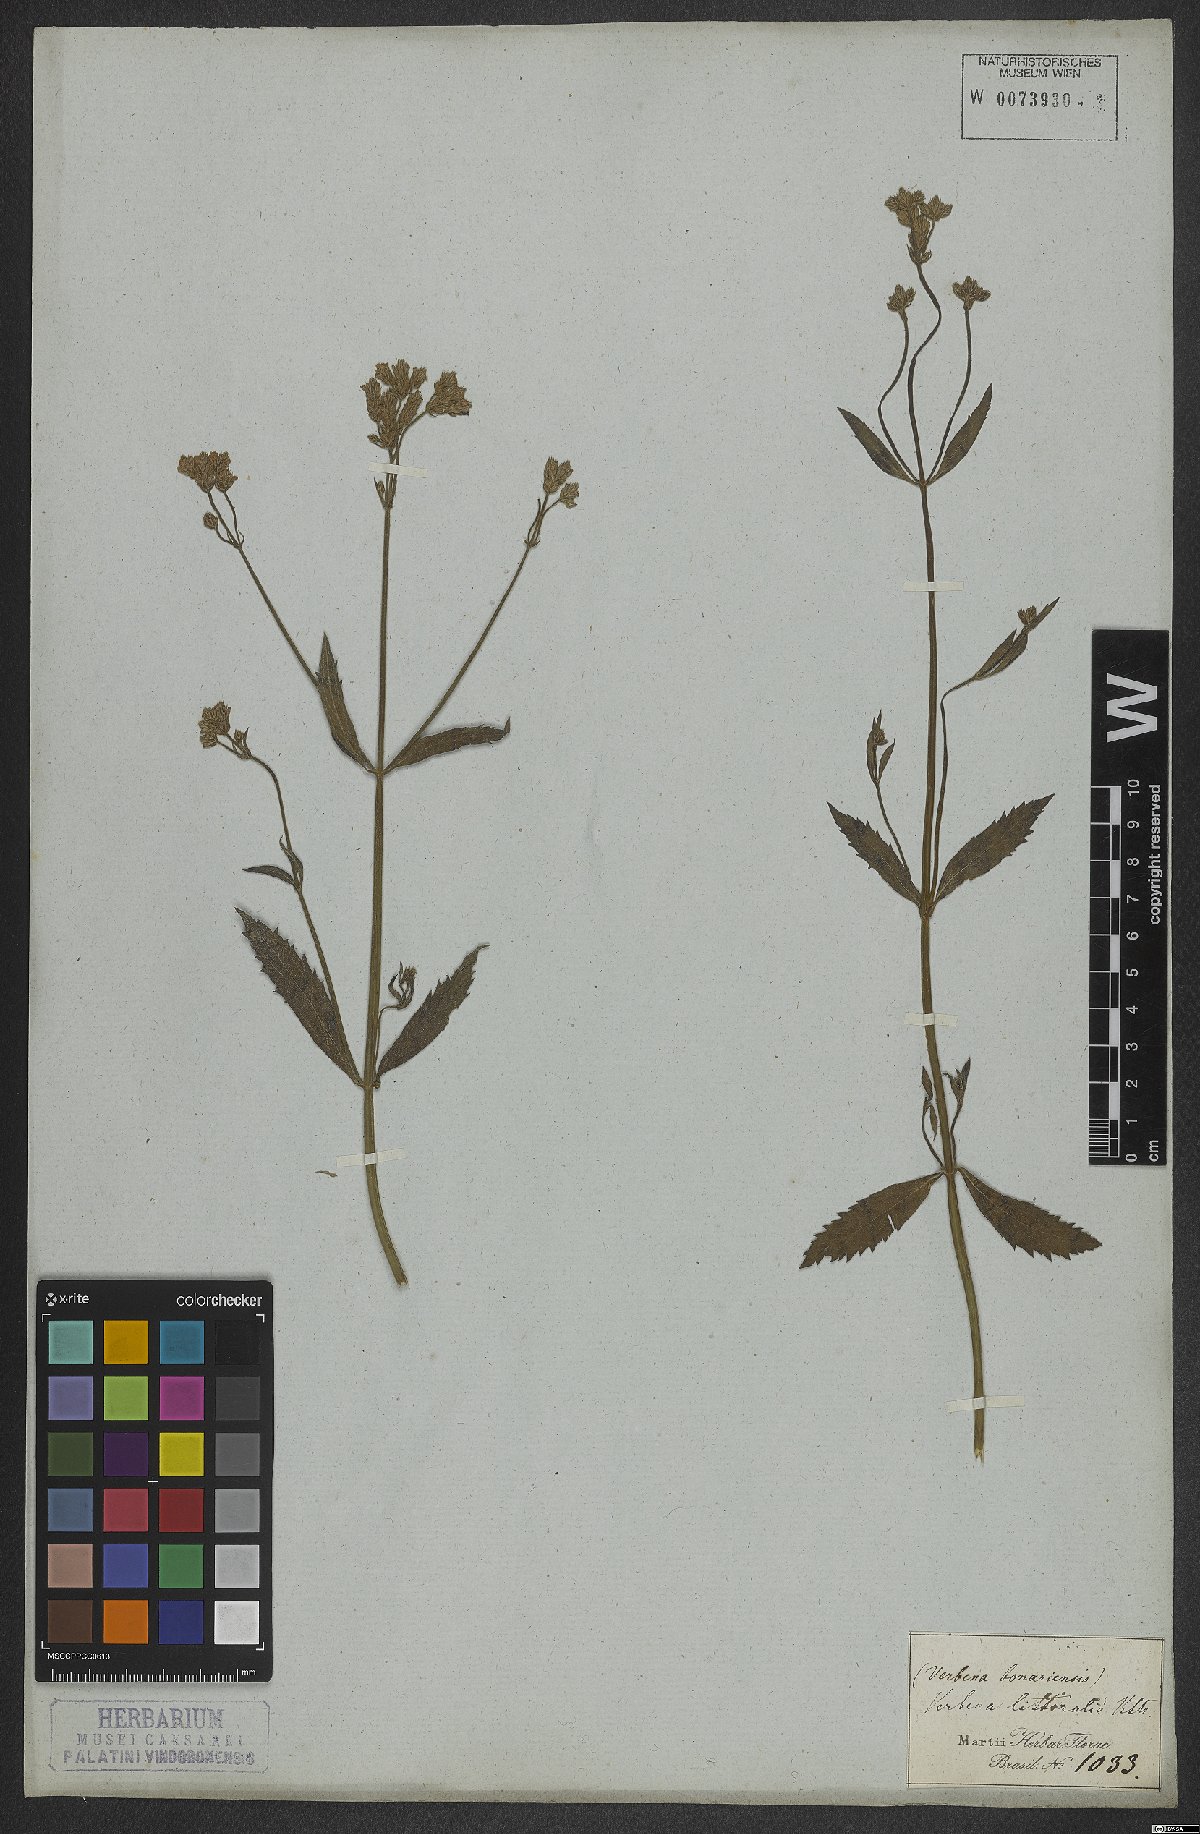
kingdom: Plantae
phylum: Tracheophyta
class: Magnoliopsida
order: Lamiales
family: Verbenaceae
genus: Verbena
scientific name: Verbena litoralis
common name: Seashore vervain
